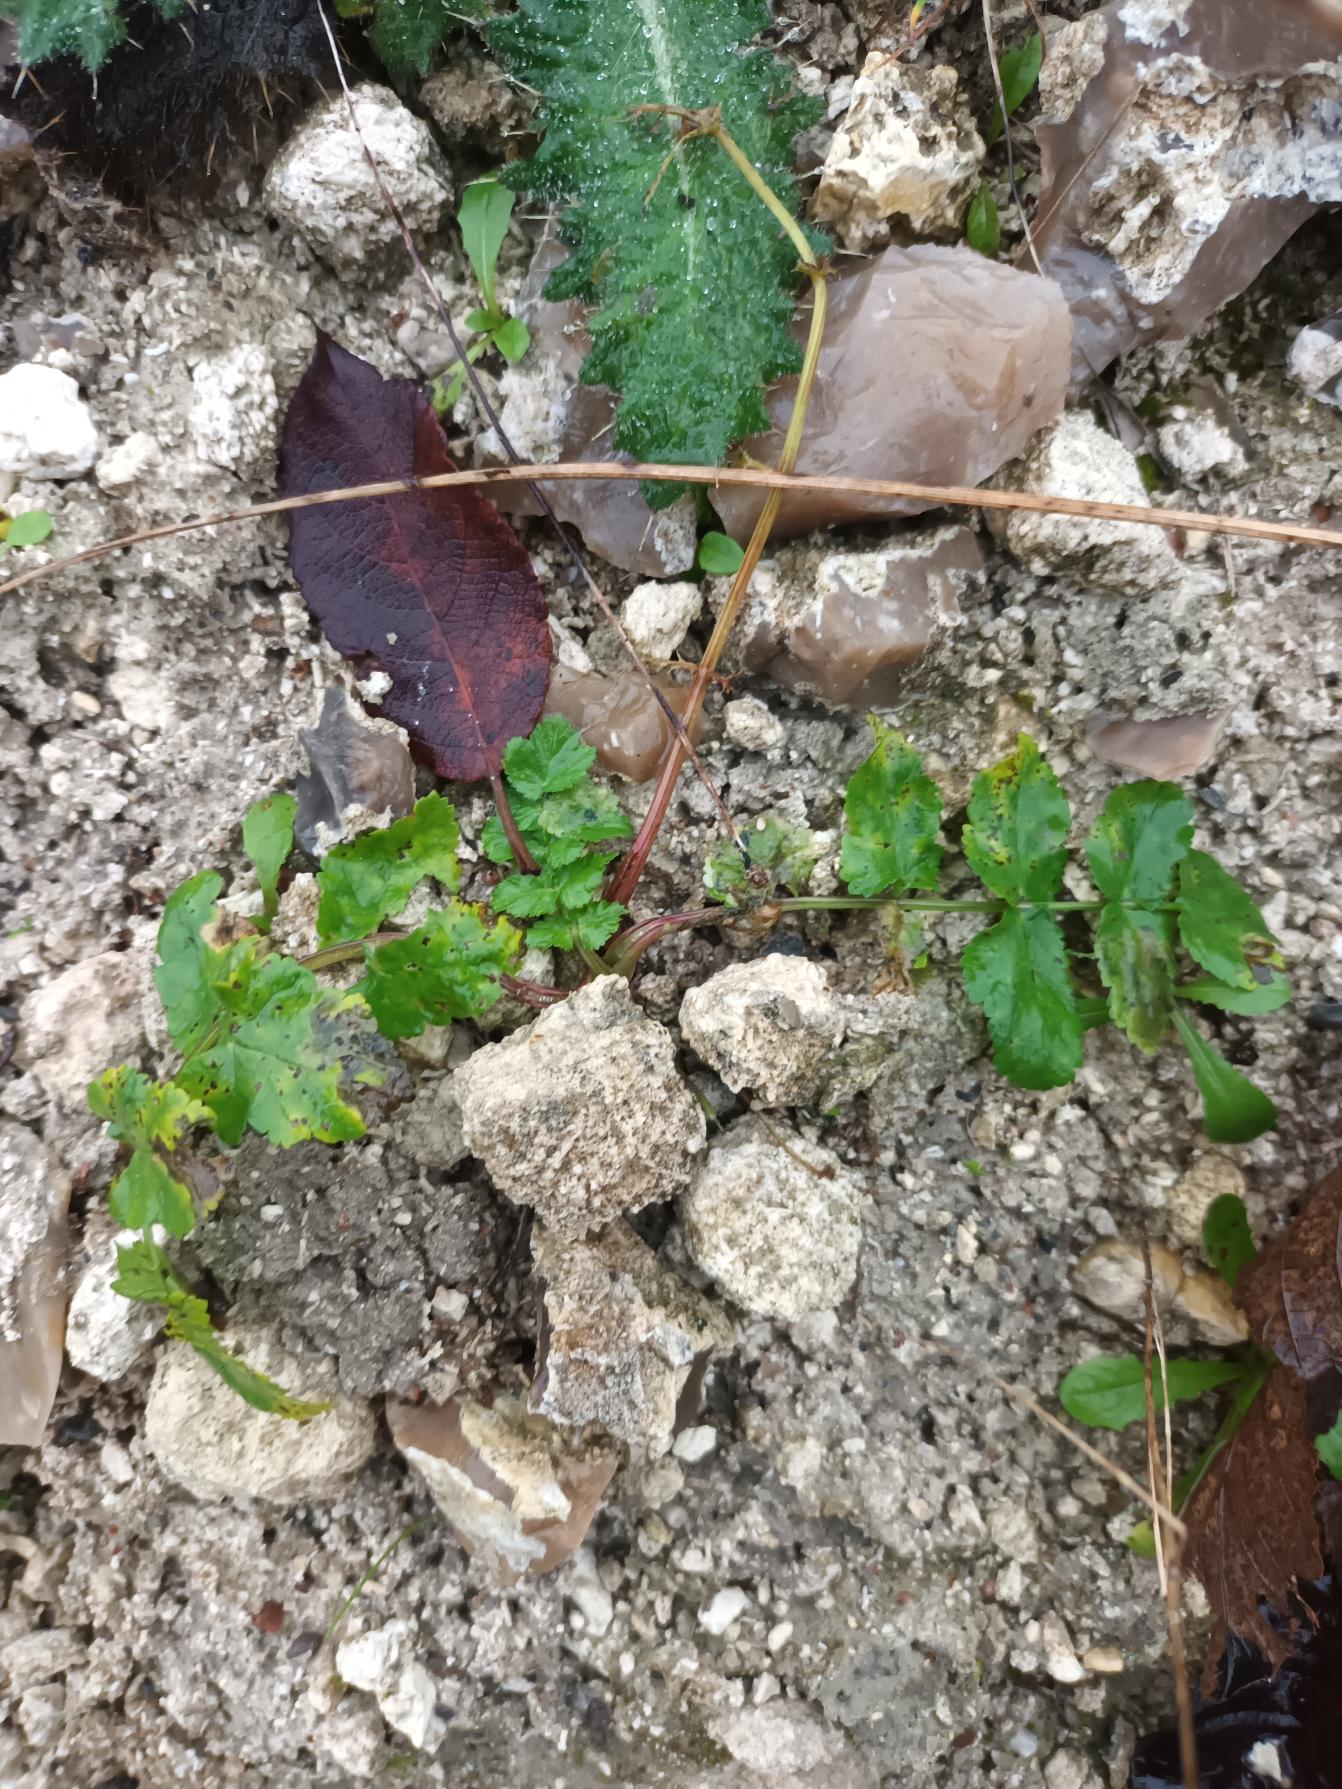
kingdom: Plantae
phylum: Tracheophyta
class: Magnoliopsida
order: Apiales
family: Apiaceae
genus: Pastinaca
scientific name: Pastinaca sativa
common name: Pastinak
